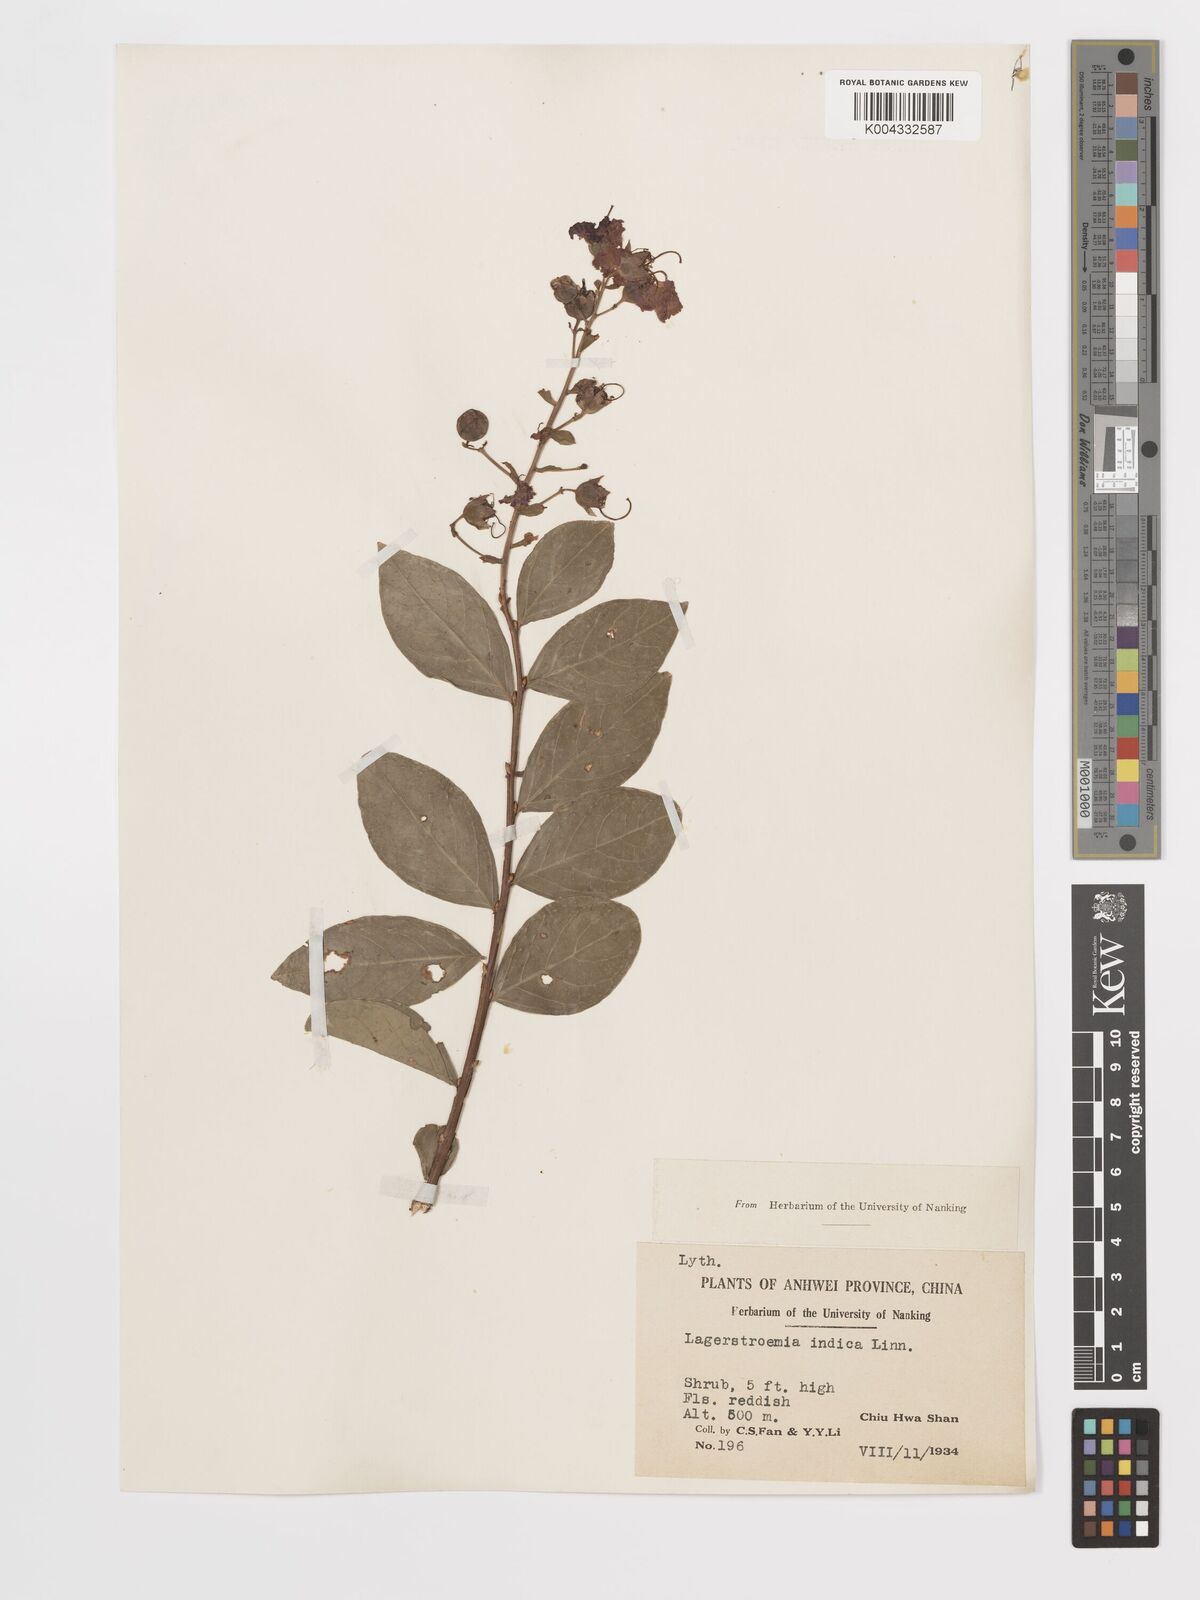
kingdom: Plantae
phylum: Tracheophyta
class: Magnoliopsida
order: Myrtales
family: Lythraceae
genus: Lagerstroemia
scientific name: Lagerstroemia indica
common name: Crape-myrtle
